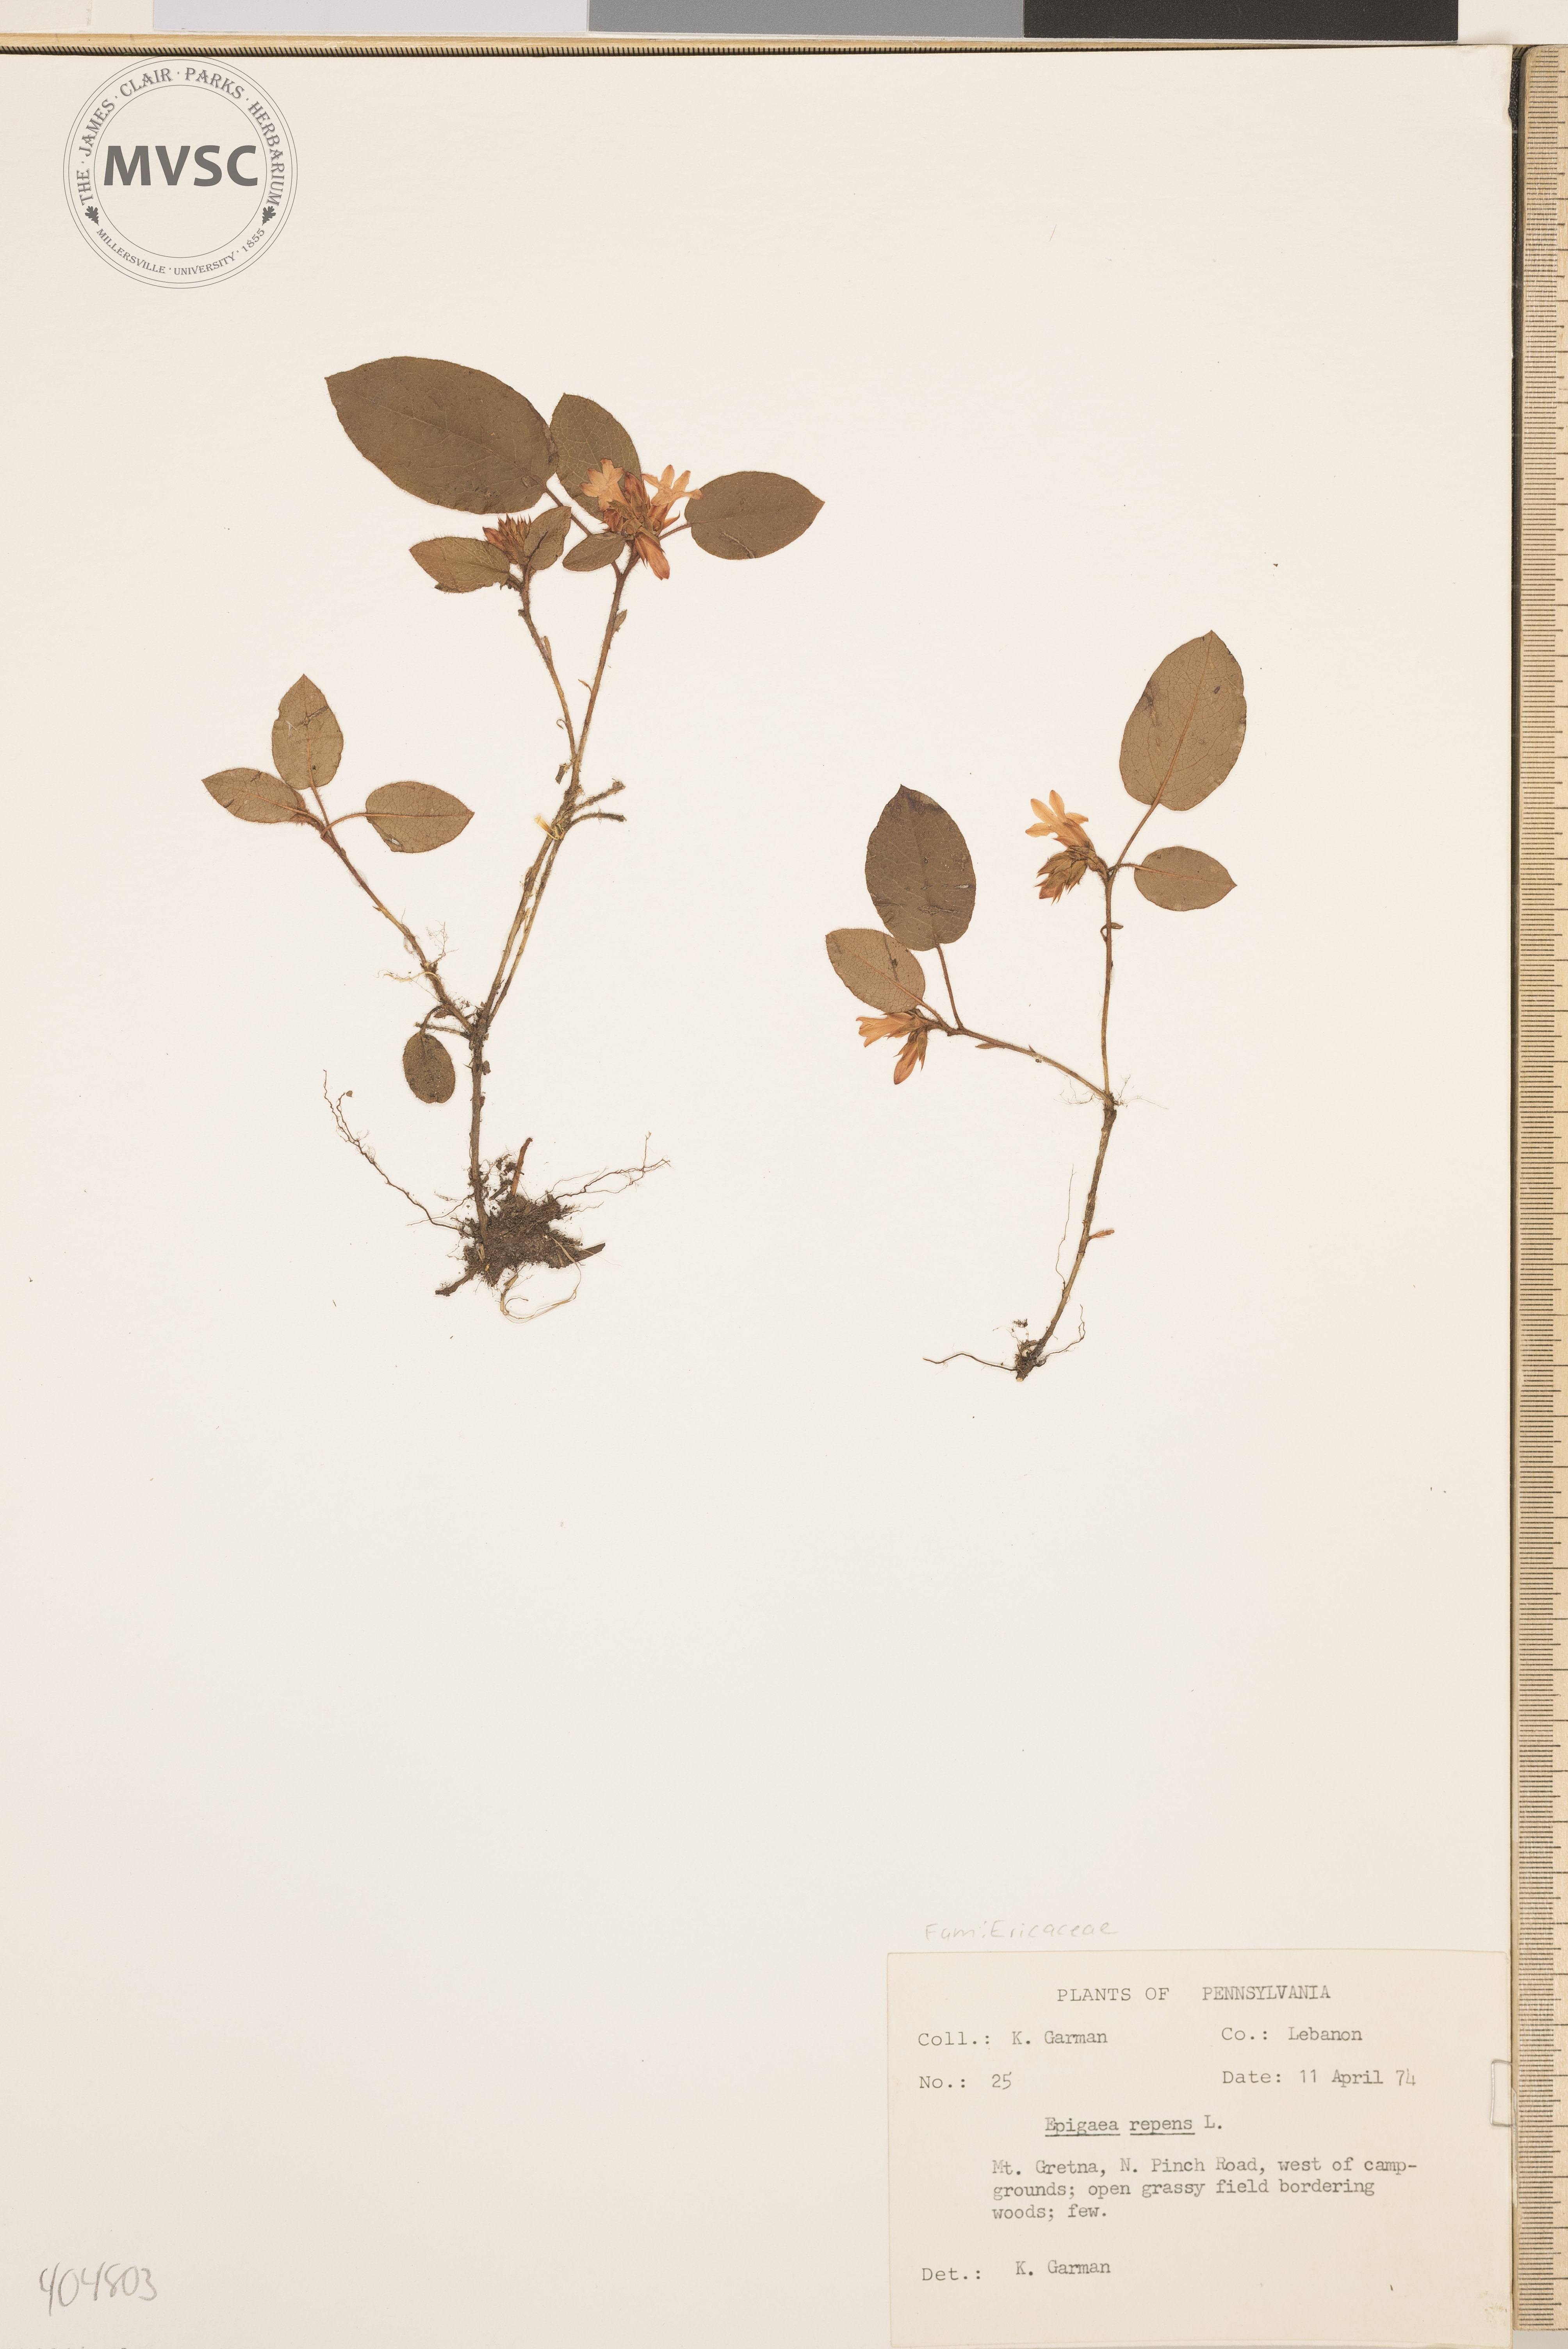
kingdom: Plantae
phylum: Tracheophyta
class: Magnoliopsida
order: Ericales
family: Ericaceae
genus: Epigaea
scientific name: Epigaea repens
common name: Gravelroot
